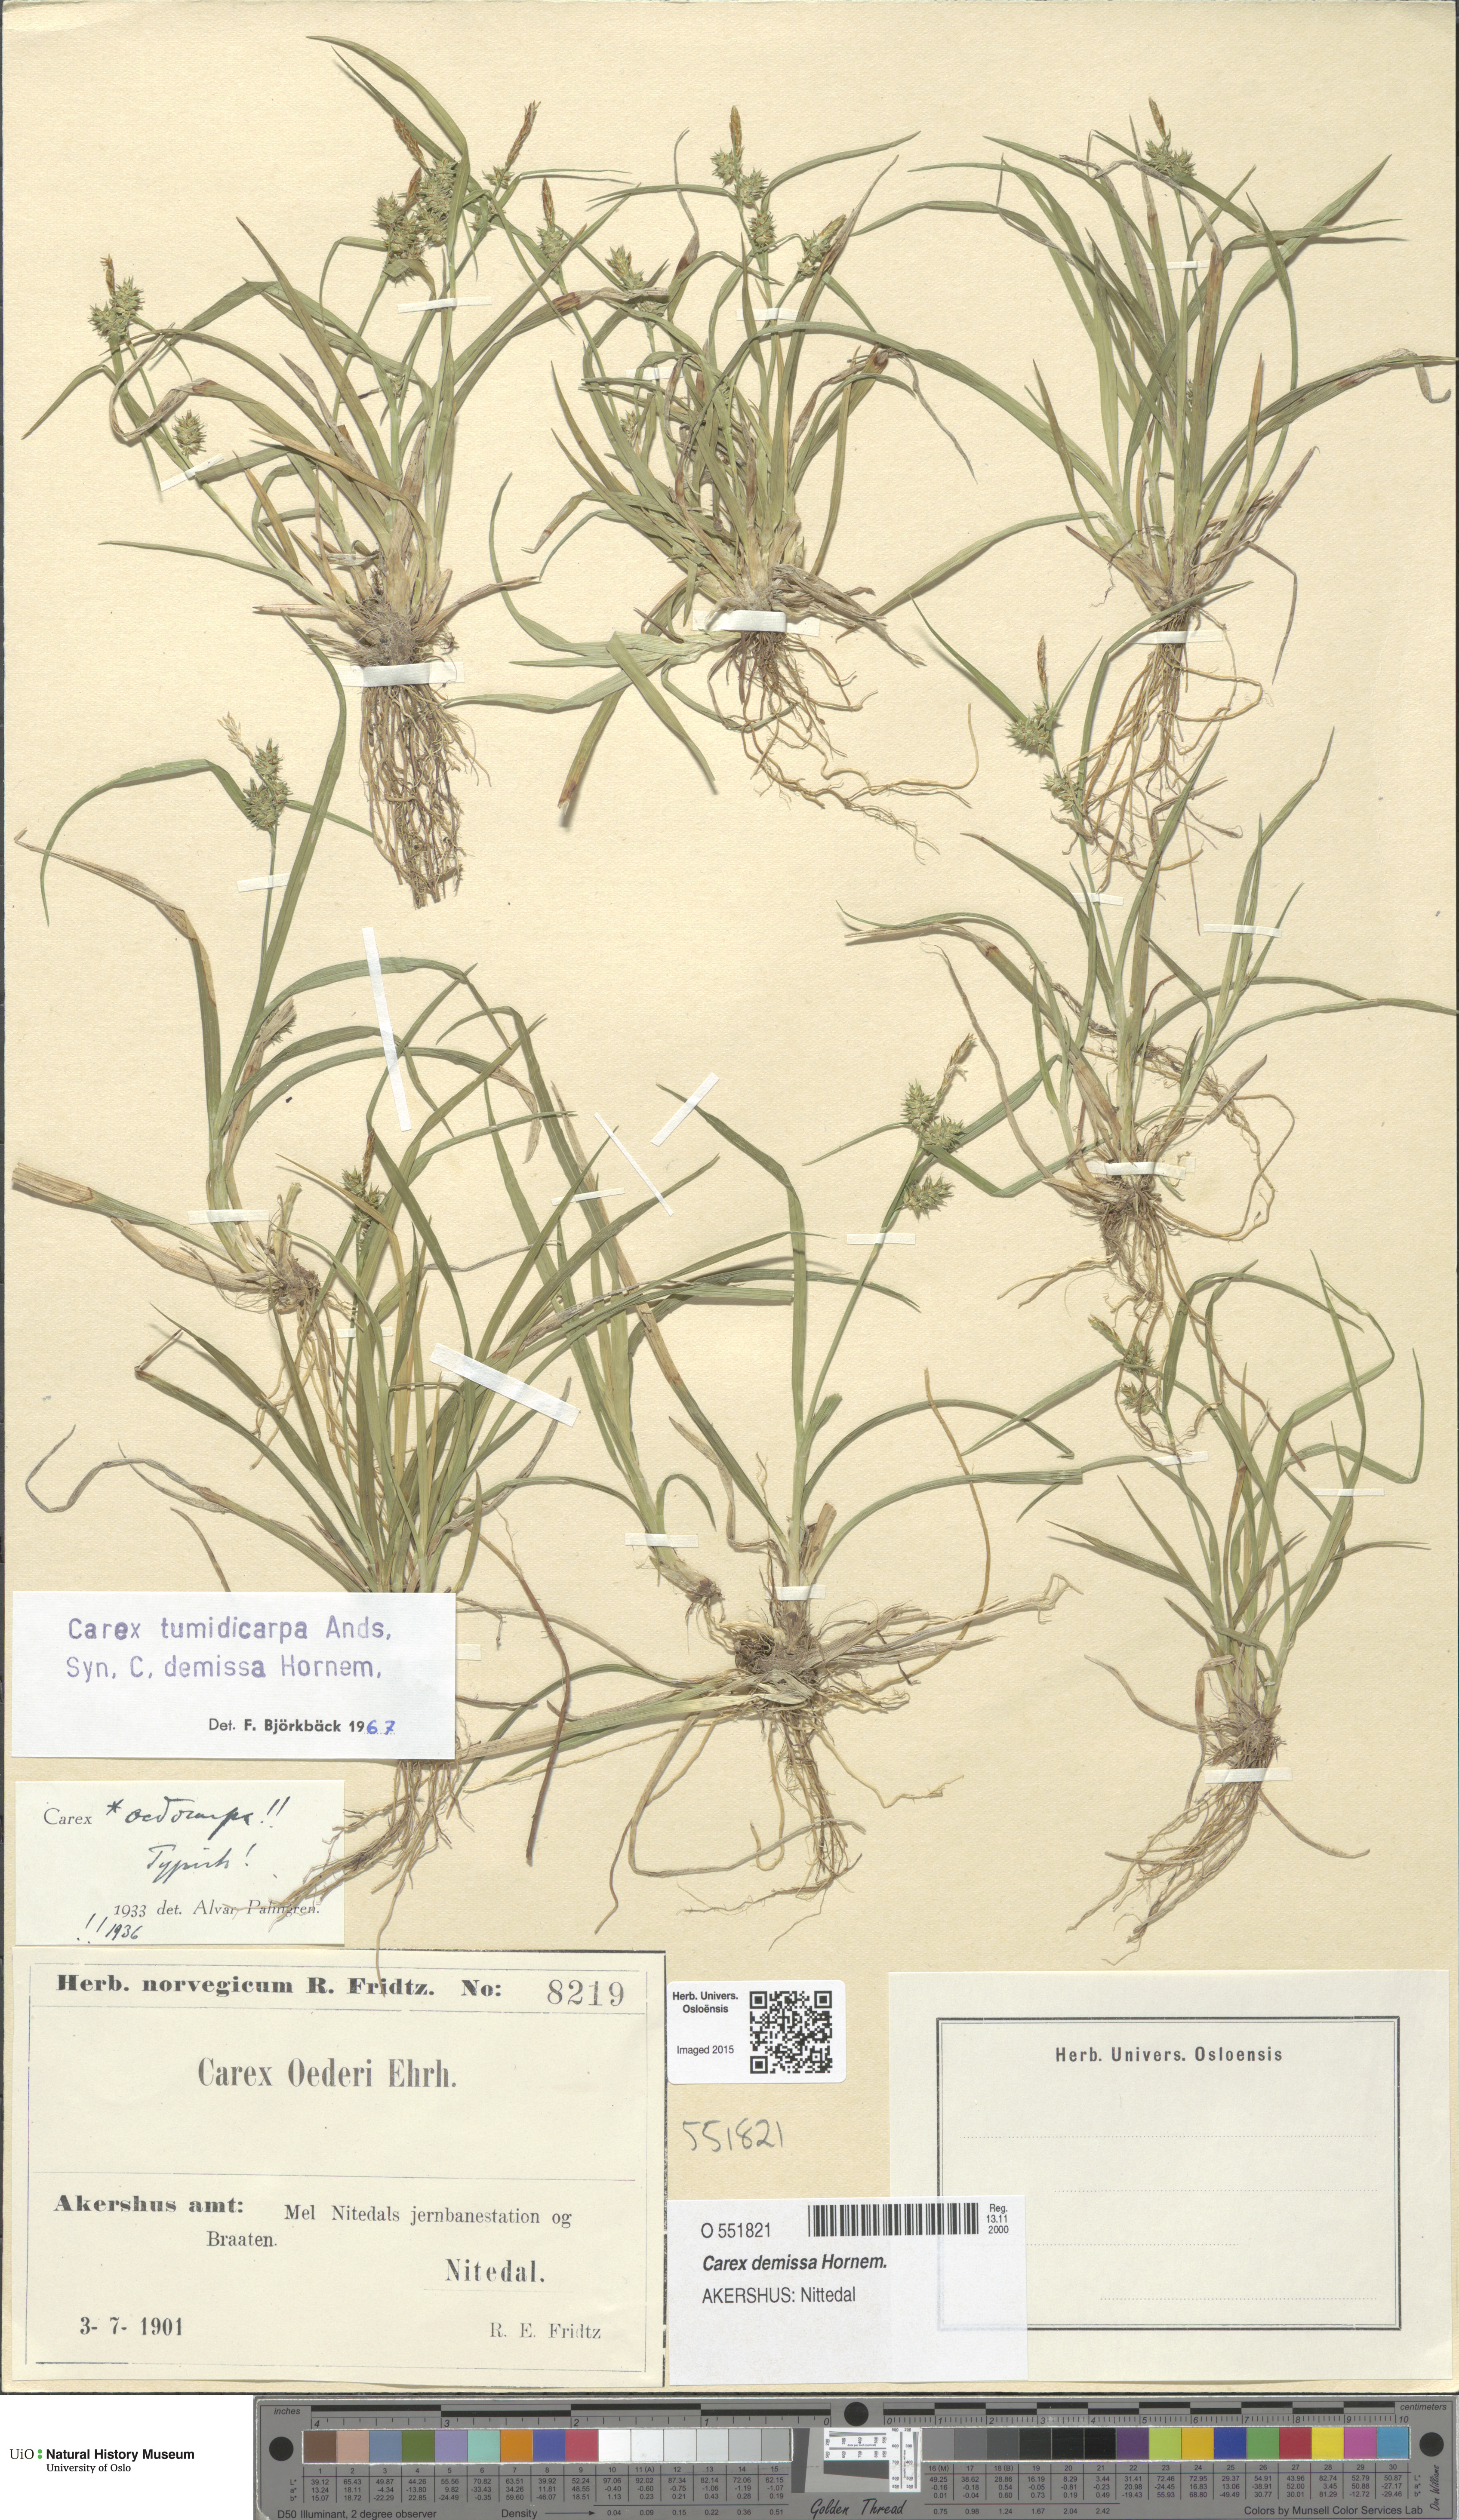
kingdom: Plantae
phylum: Tracheophyta
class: Liliopsida
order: Poales
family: Cyperaceae
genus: Carex
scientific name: Carex demissa
